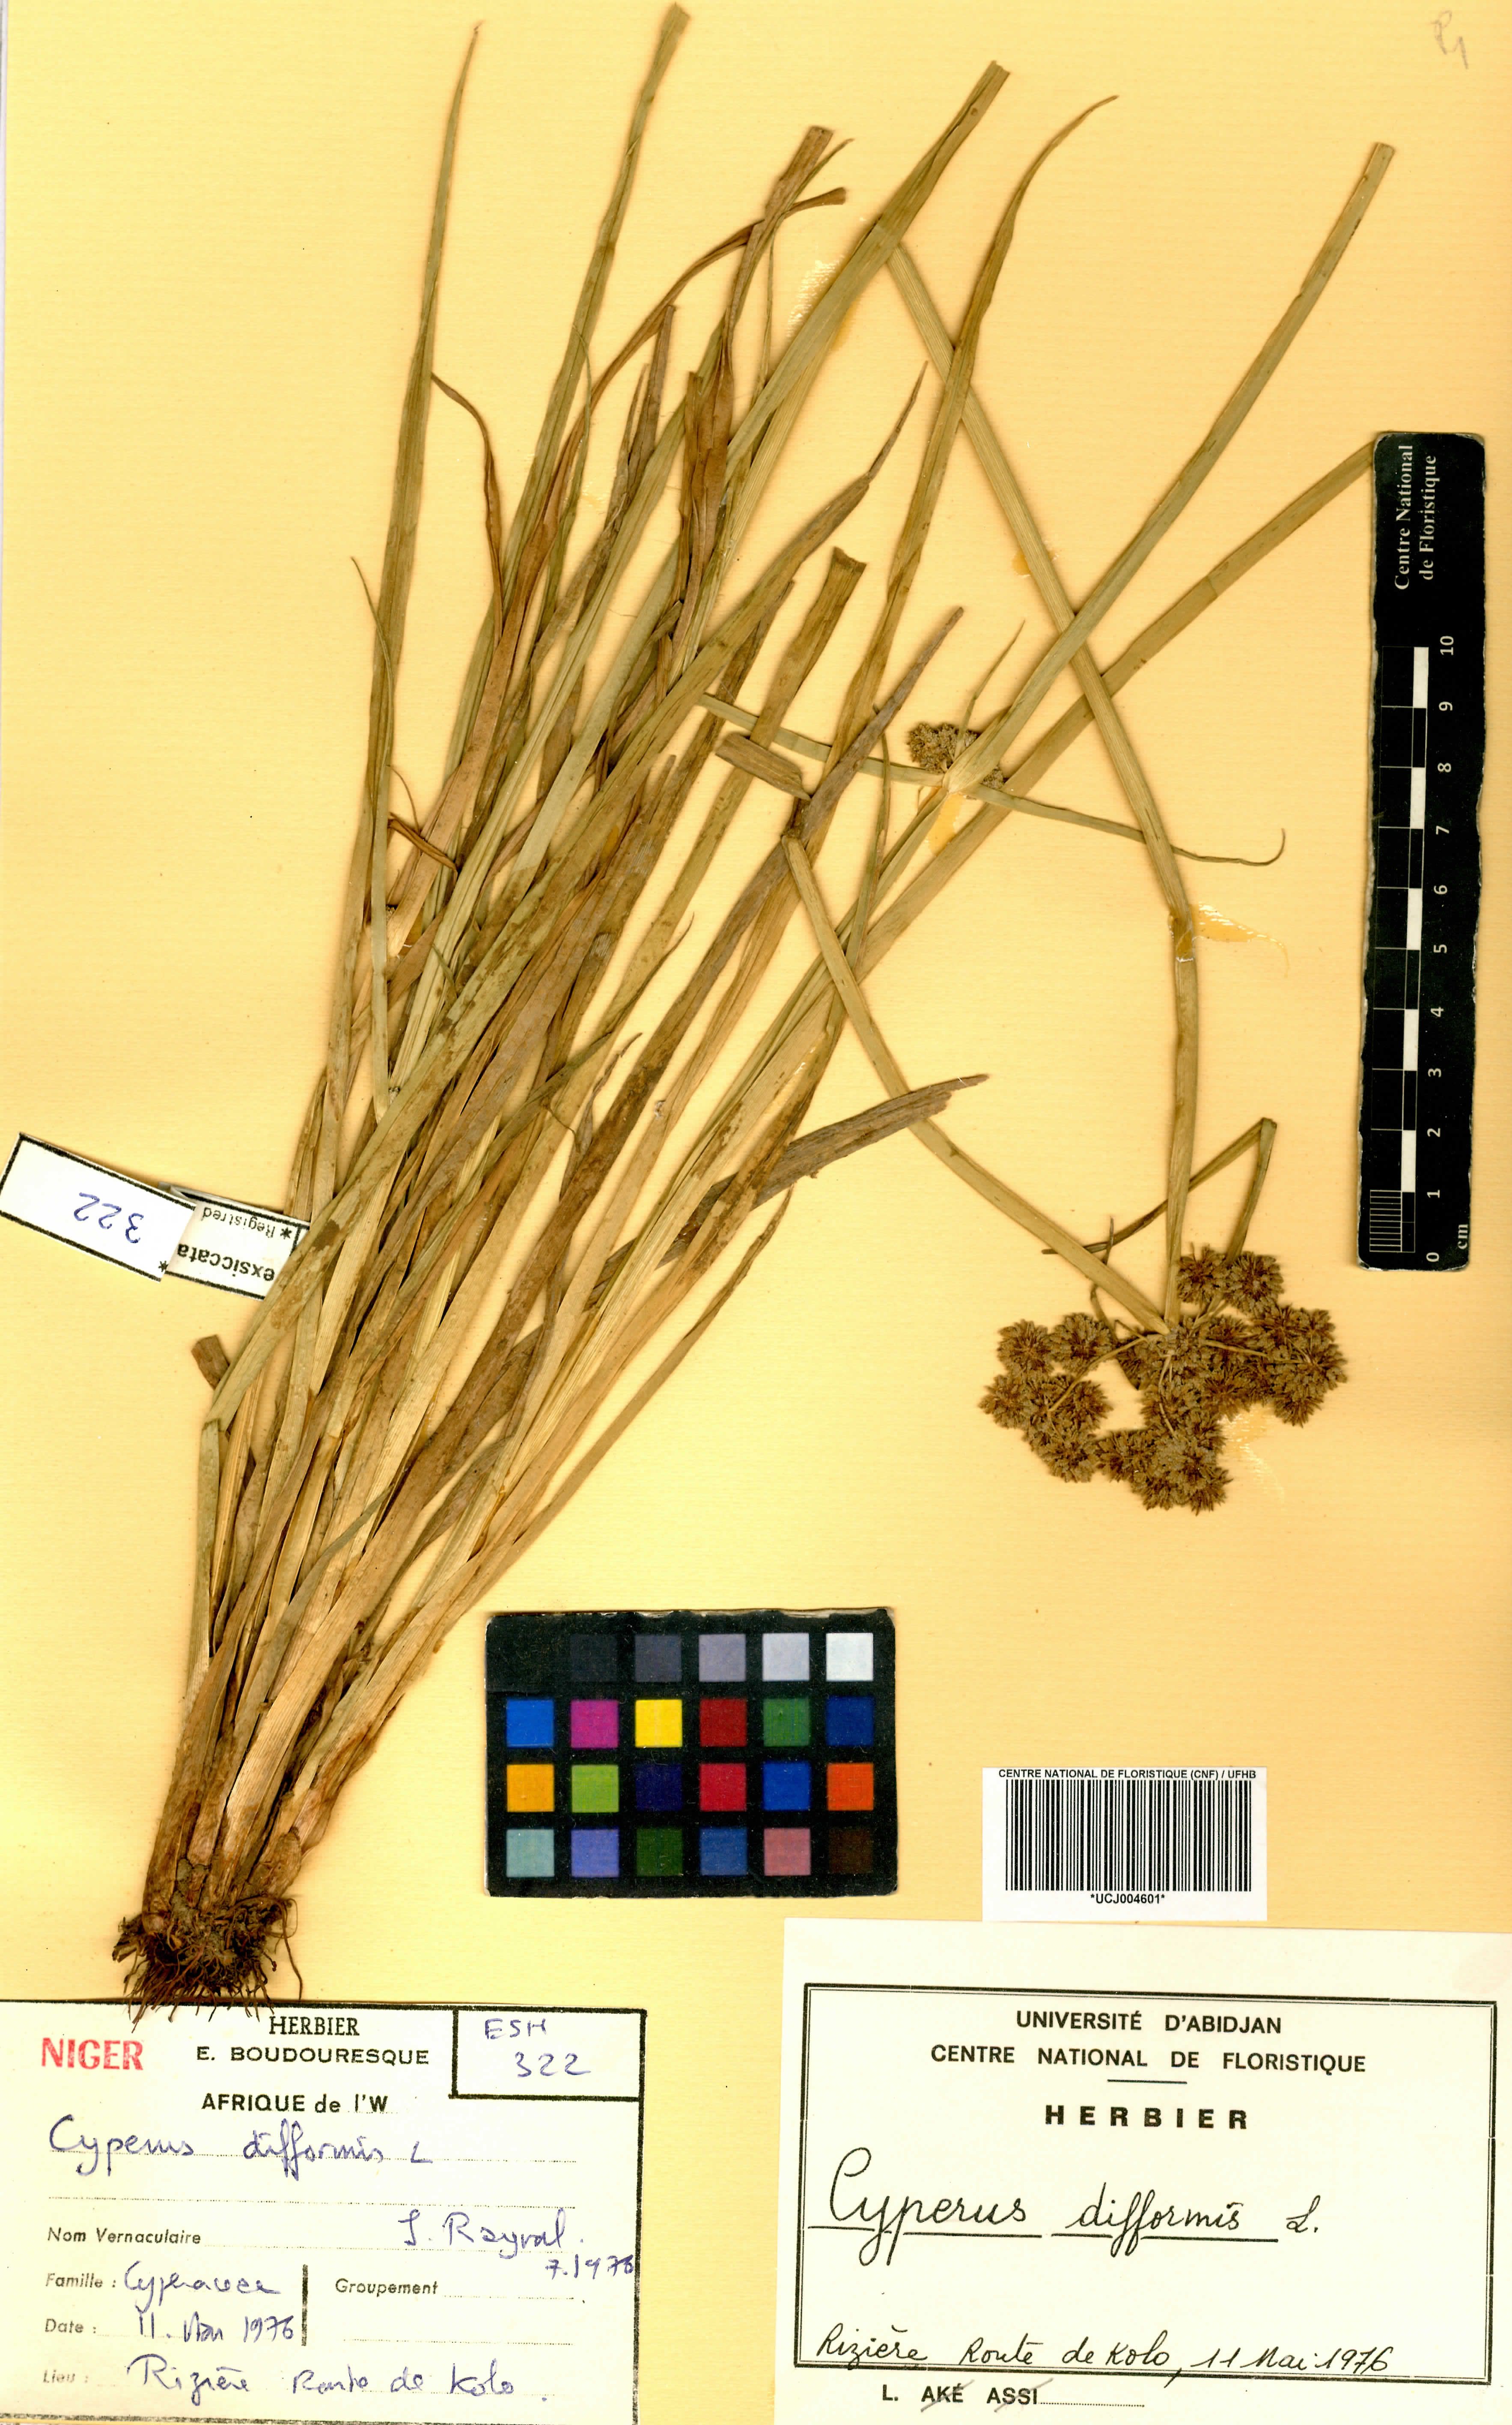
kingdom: Plantae
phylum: Tracheophyta
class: Liliopsida
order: Poales
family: Cyperaceae
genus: Cyperus
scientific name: Cyperus difformis
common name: Variable flatsedge
